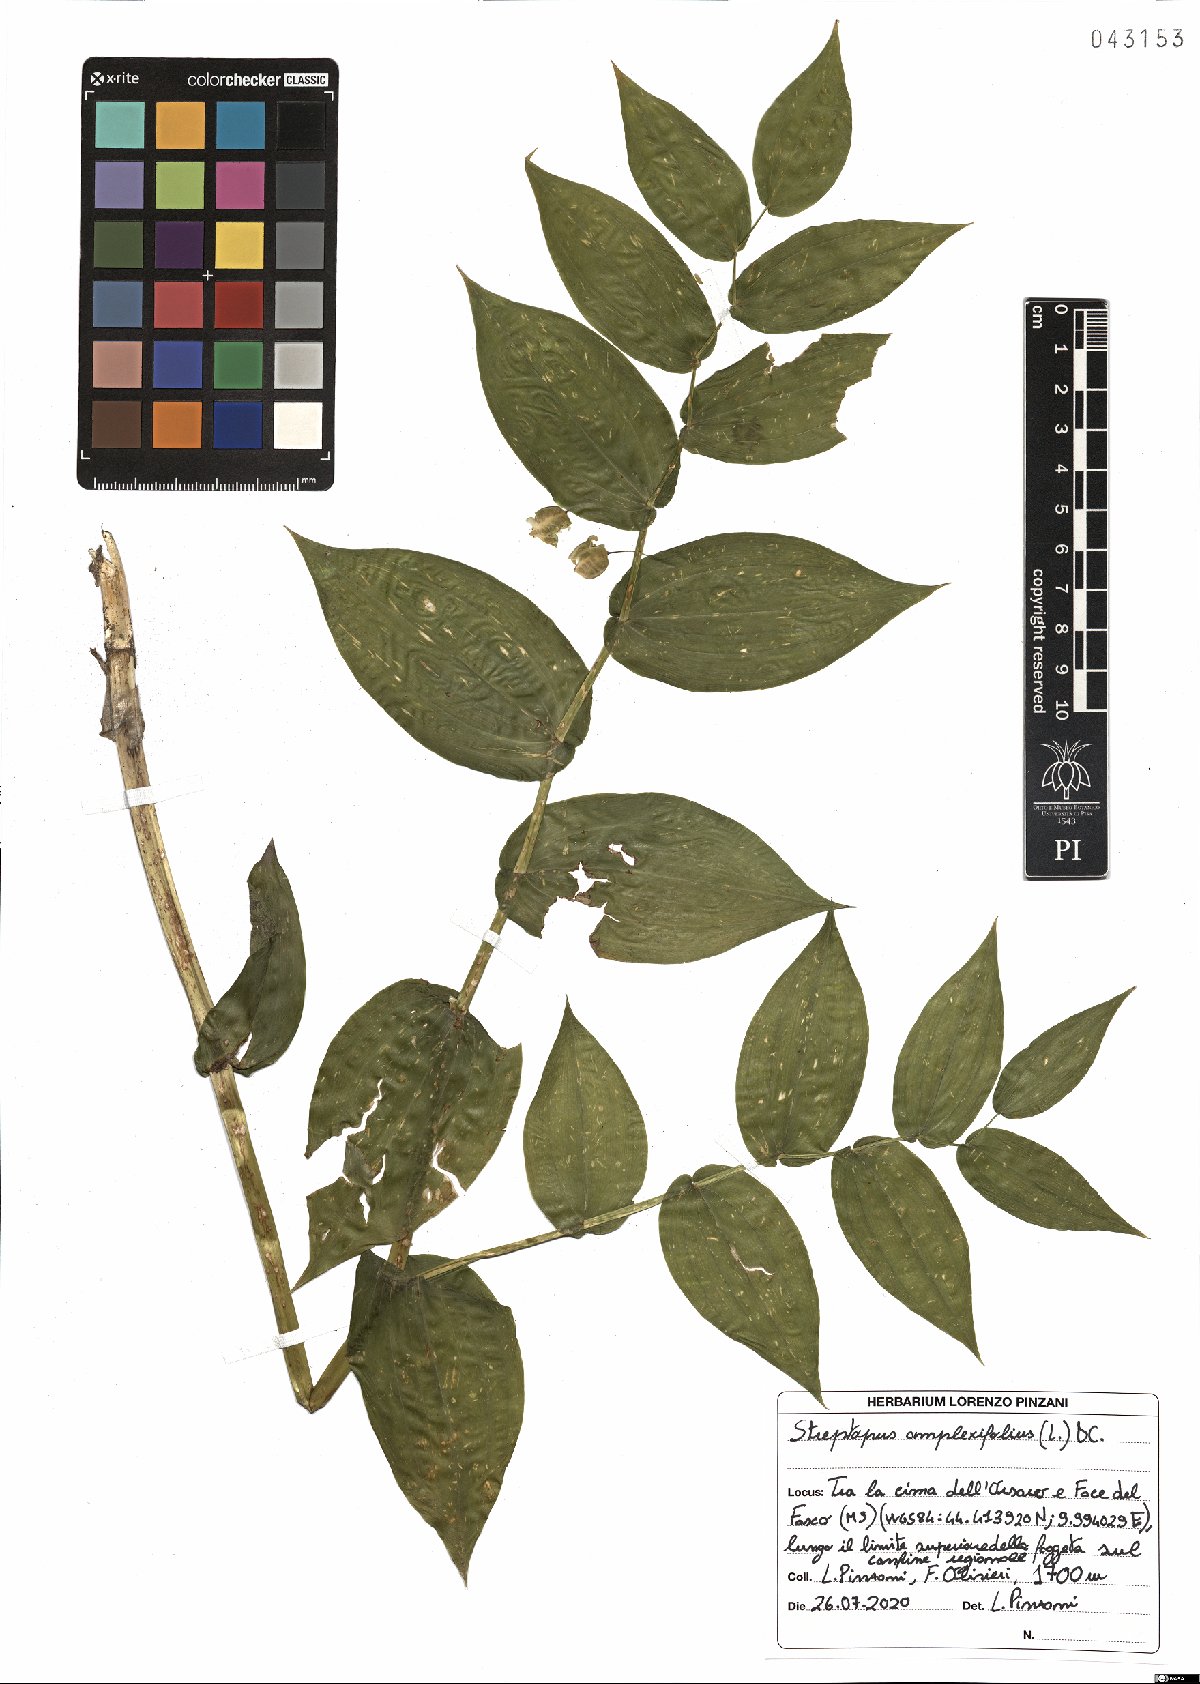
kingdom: Plantae
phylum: Tracheophyta
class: Liliopsida
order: Liliales
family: Liliaceae
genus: Streptopus
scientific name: Streptopus amplexifolius
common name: Clasp twisted stalk
